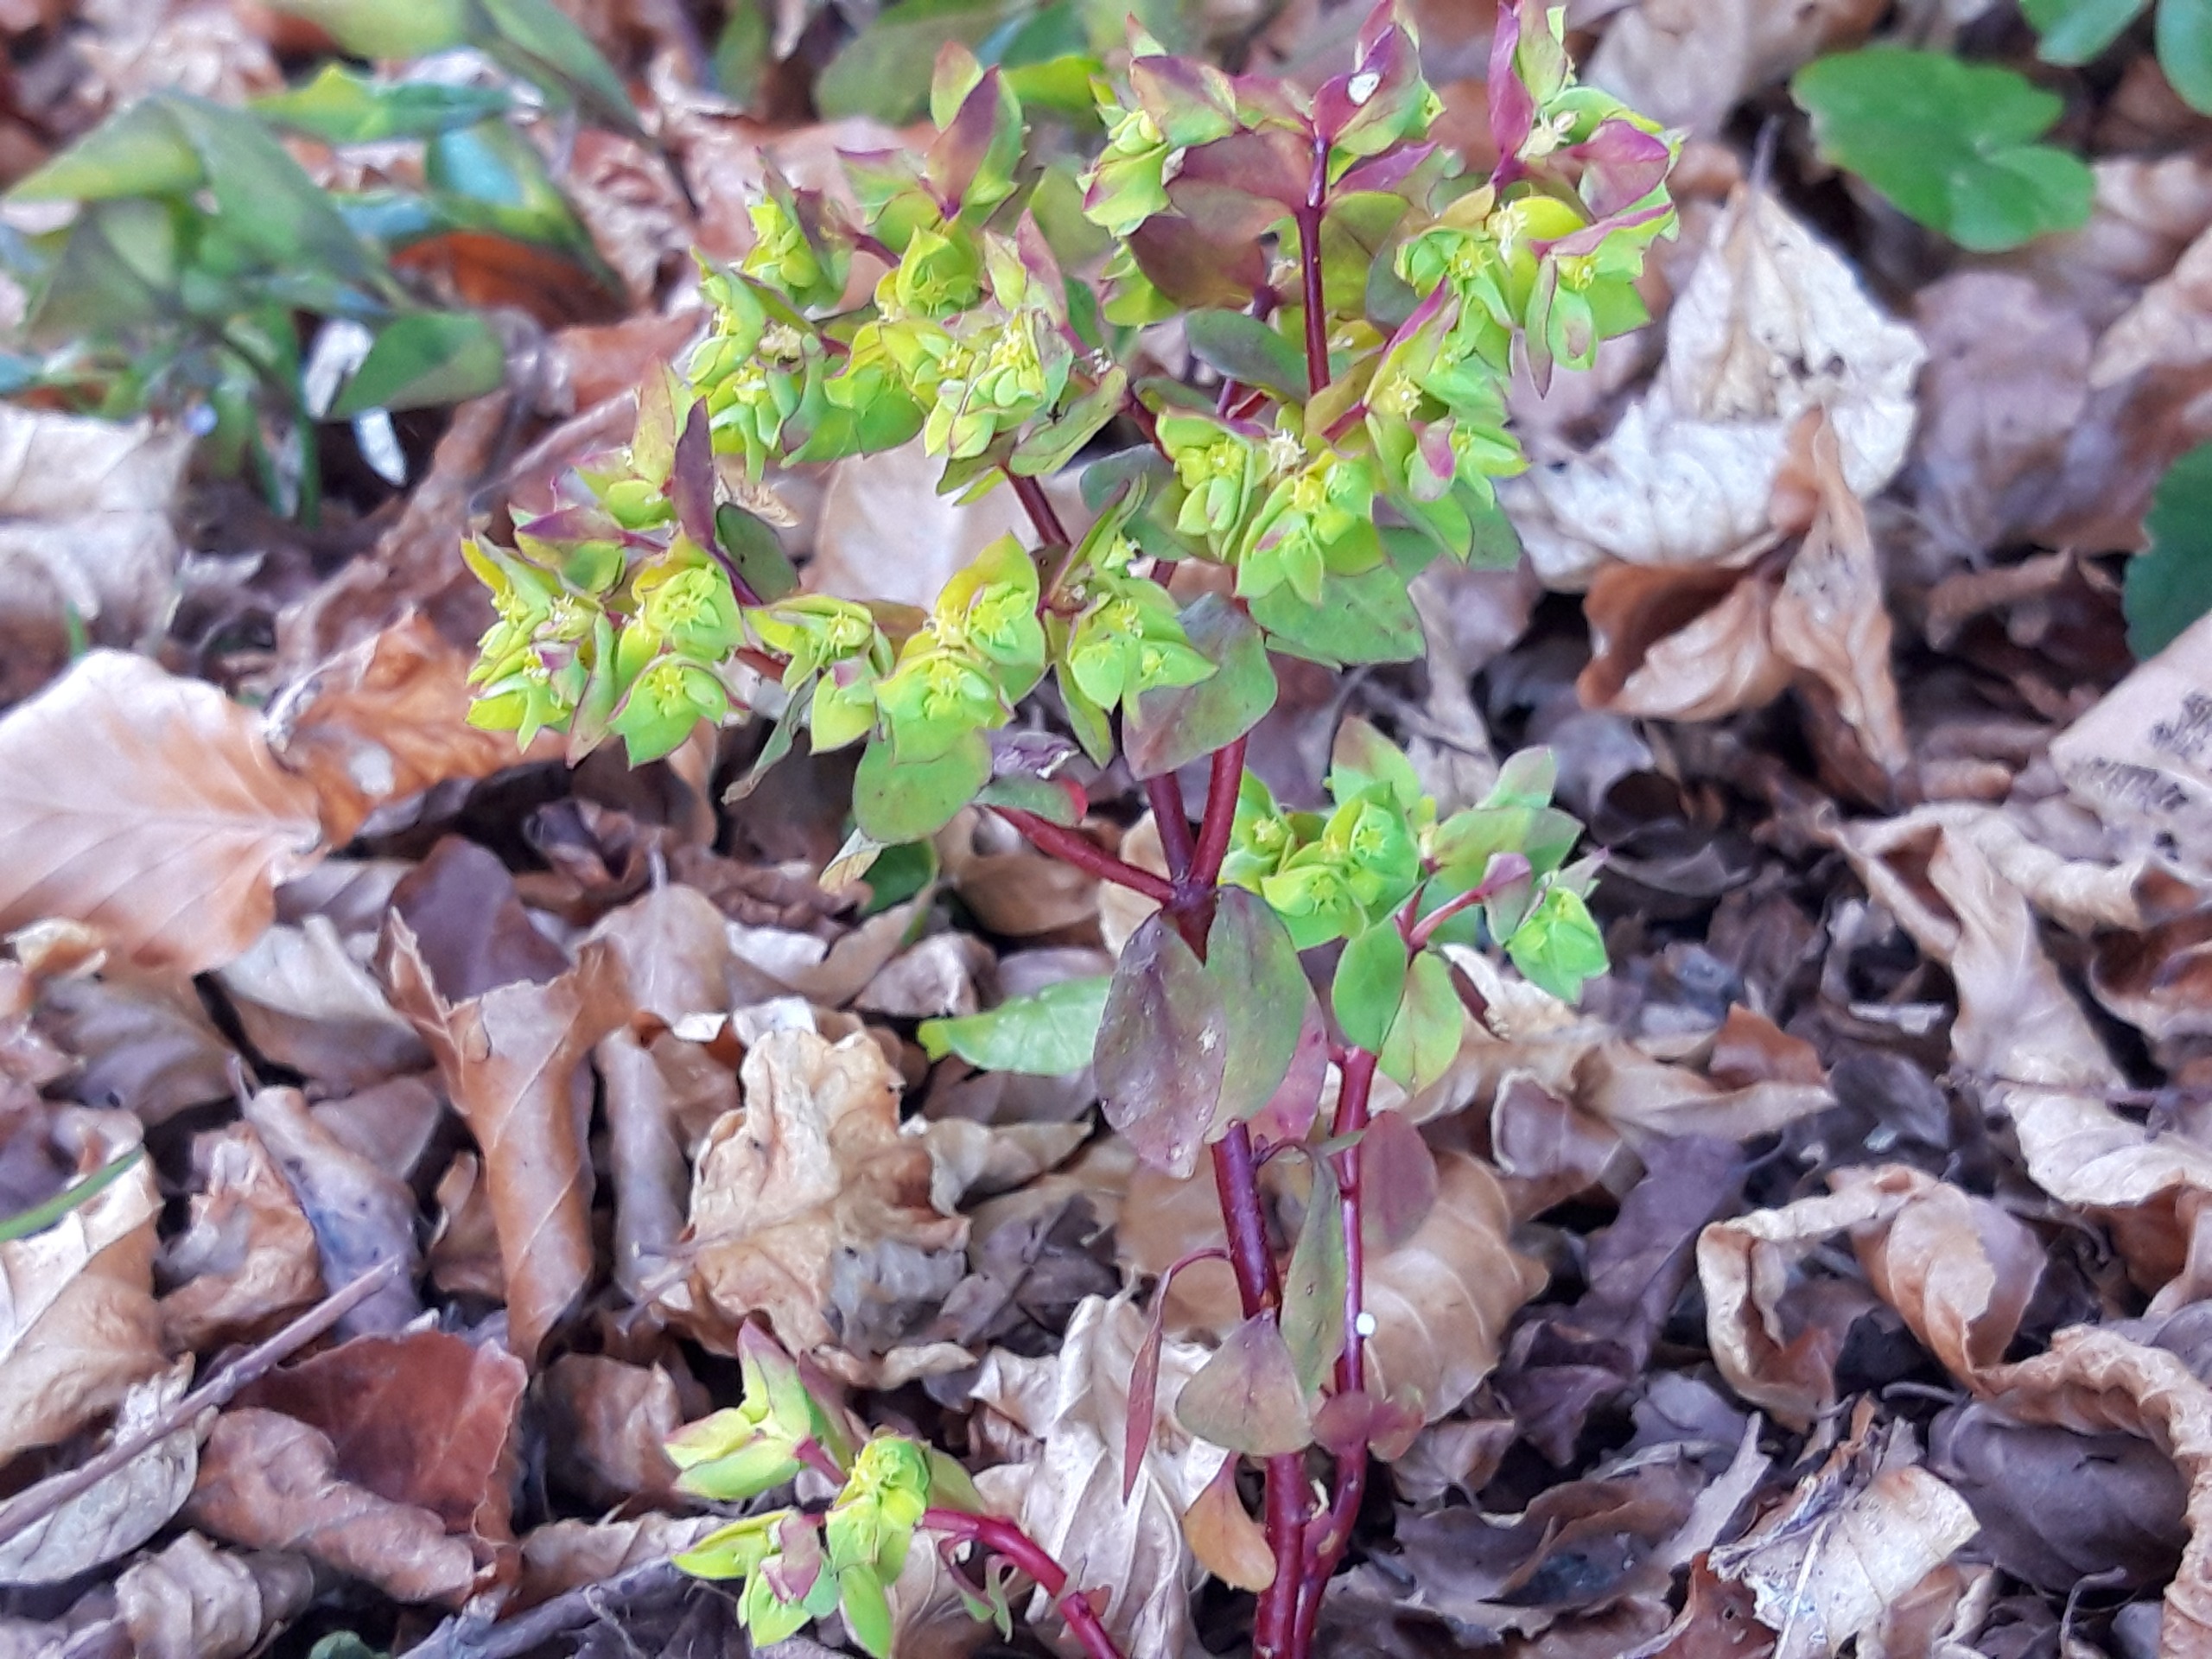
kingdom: Plantae
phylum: Tracheophyta
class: Magnoliopsida
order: Malpighiales
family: Euphorbiaceae
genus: Euphorbia
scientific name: Euphorbia peplus
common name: Gaffel-vortemælk
